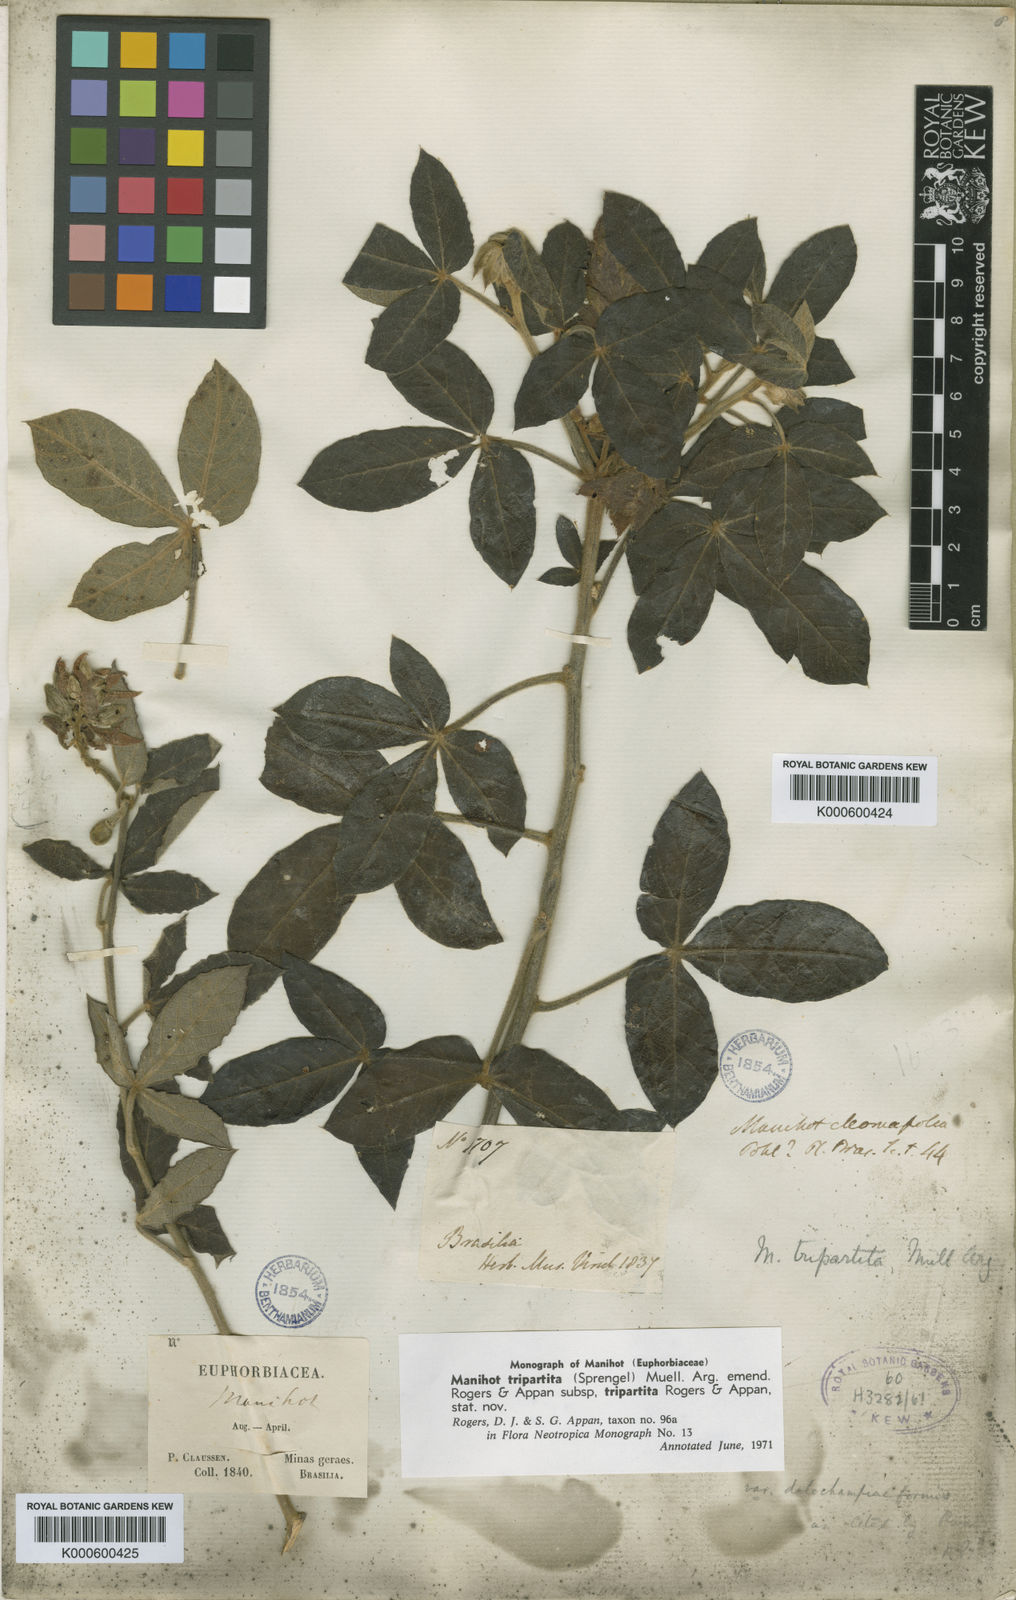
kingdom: Plantae
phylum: Tracheophyta
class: Magnoliopsida
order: Malpighiales
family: Euphorbiaceae
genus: Manihot
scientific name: Manihot
